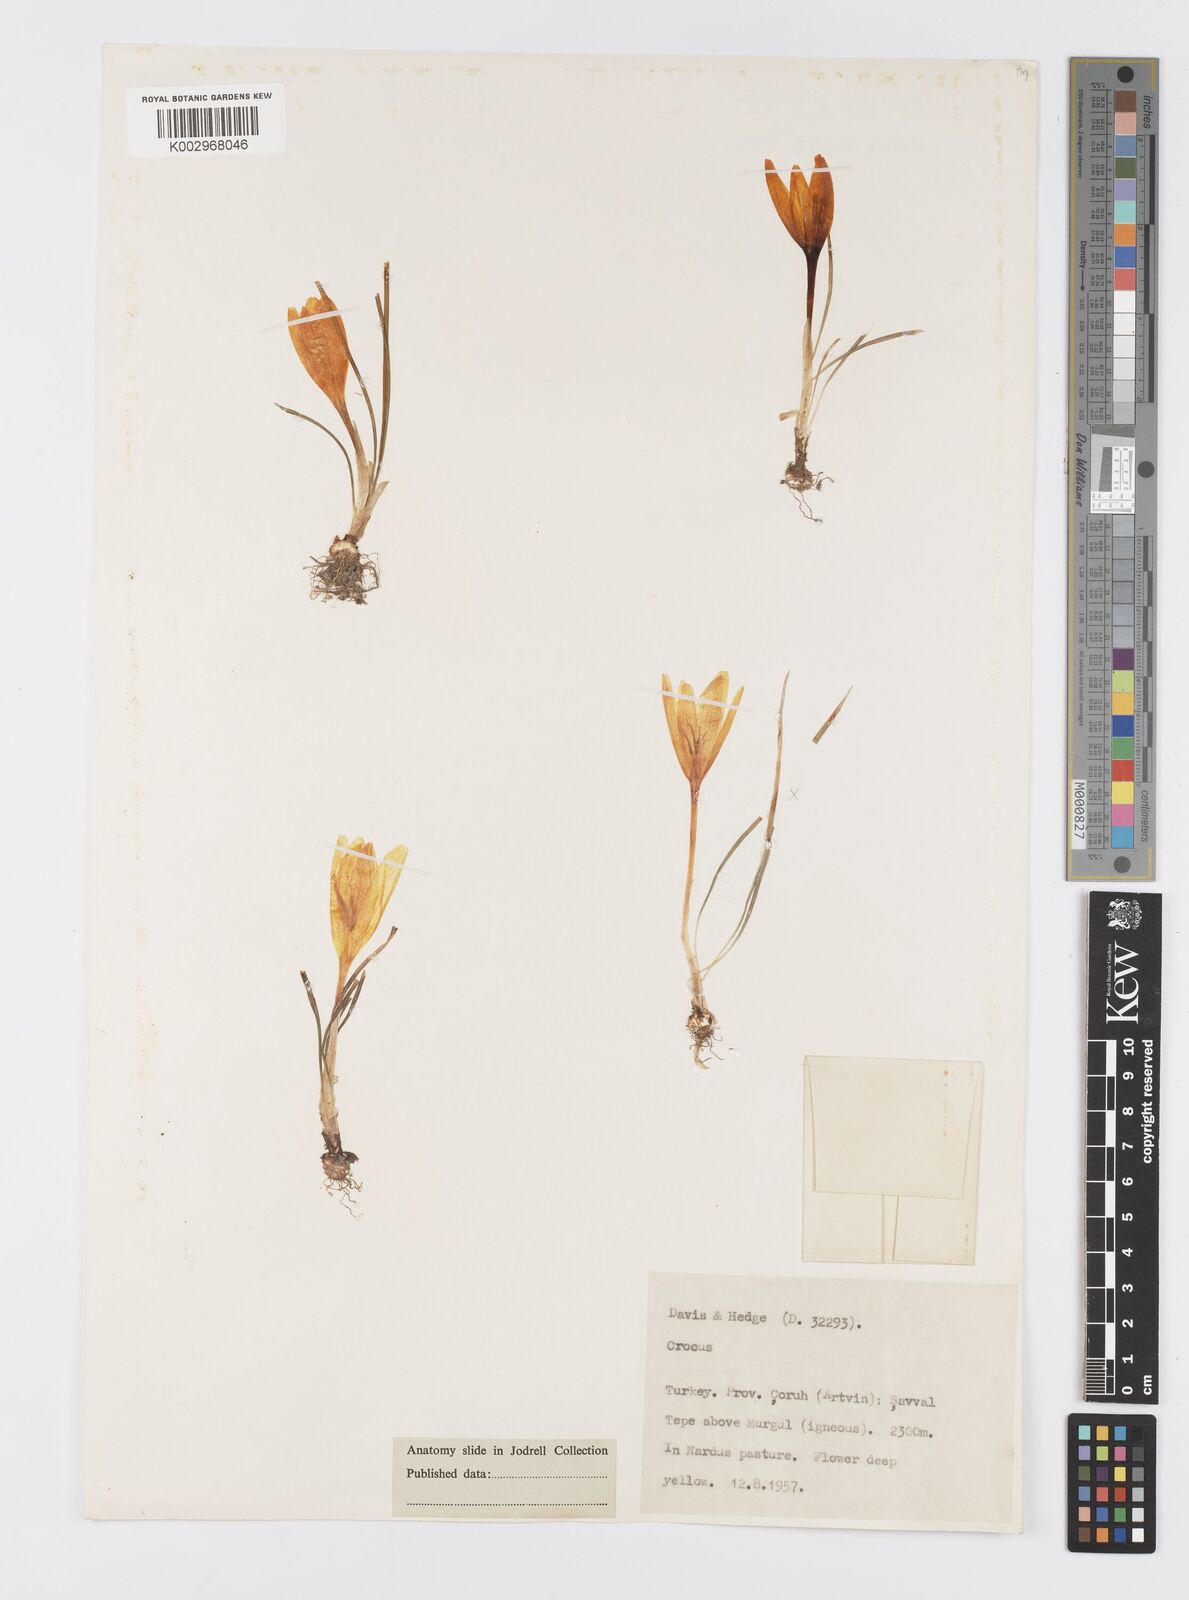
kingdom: Plantae
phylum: Tracheophyta
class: Liliopsida
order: Asparagales
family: Iridaceae
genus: Crocus
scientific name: Crocus lazicus
